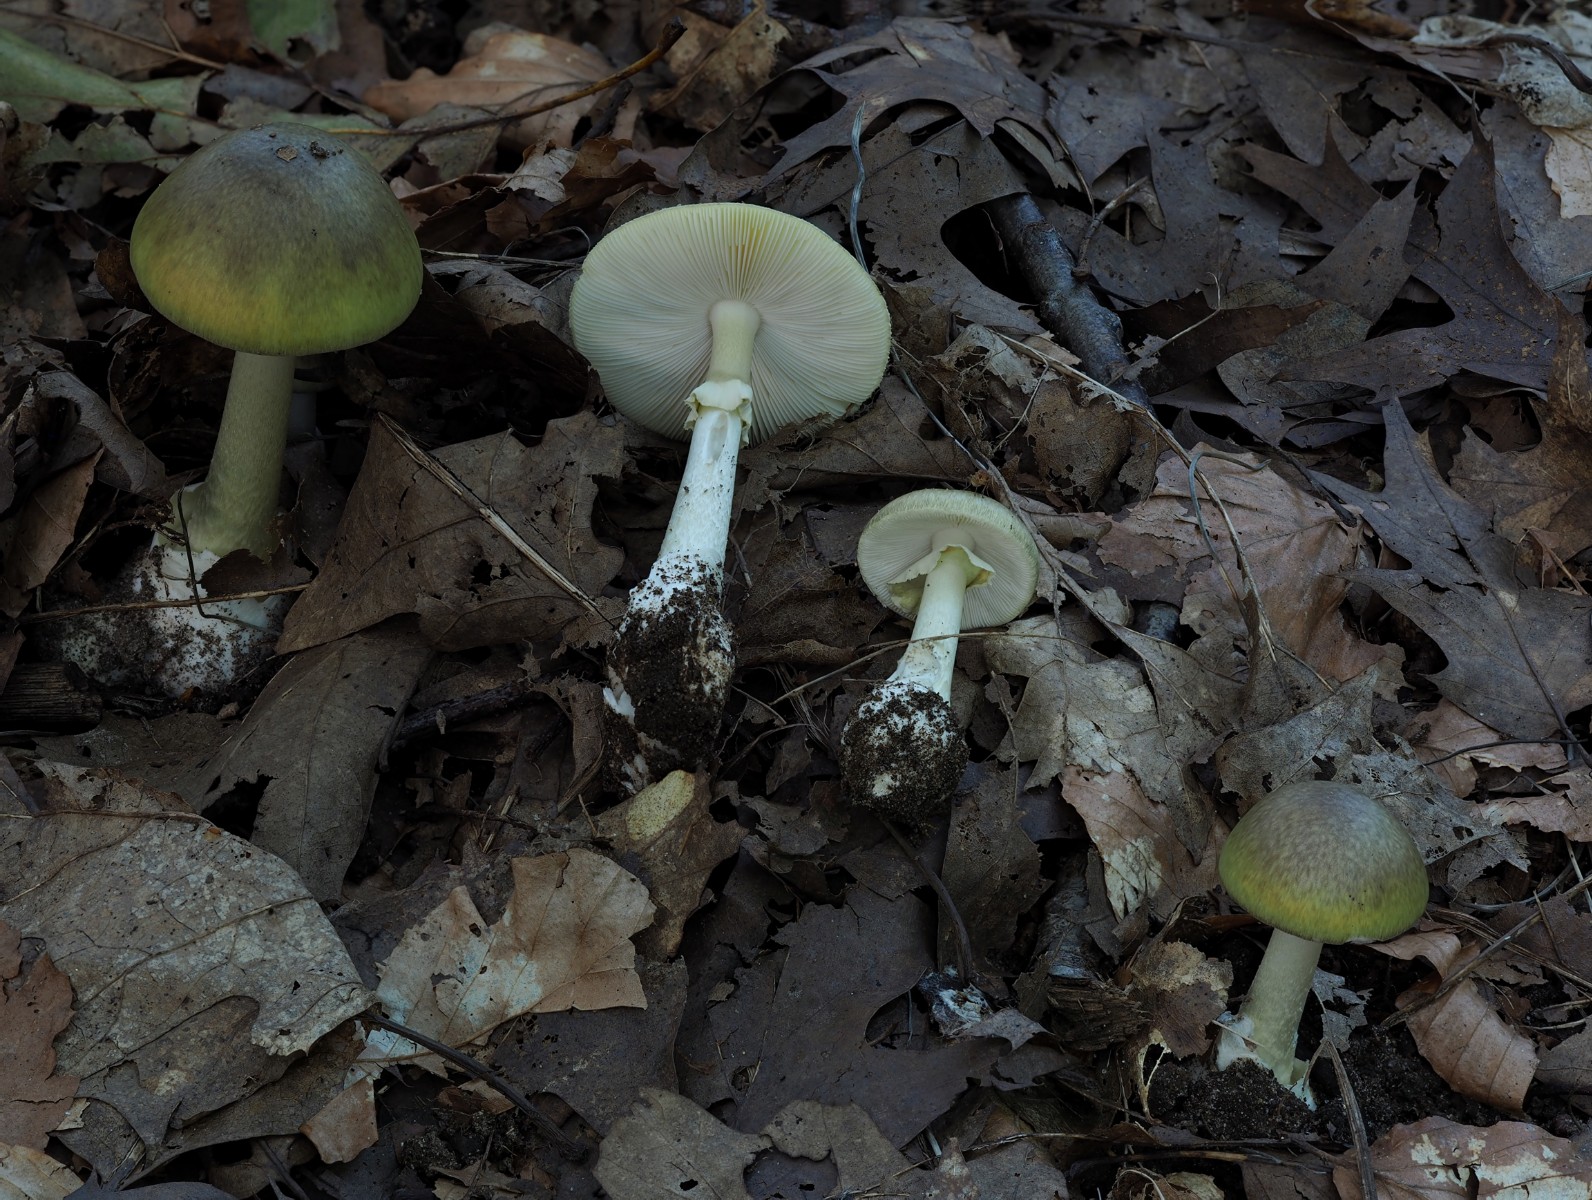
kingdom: Fungi
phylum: Basidiomycota
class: Agaricomycetes
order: Agaricales
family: Amanitaceae
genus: Amanita
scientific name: Amanita phalloides
